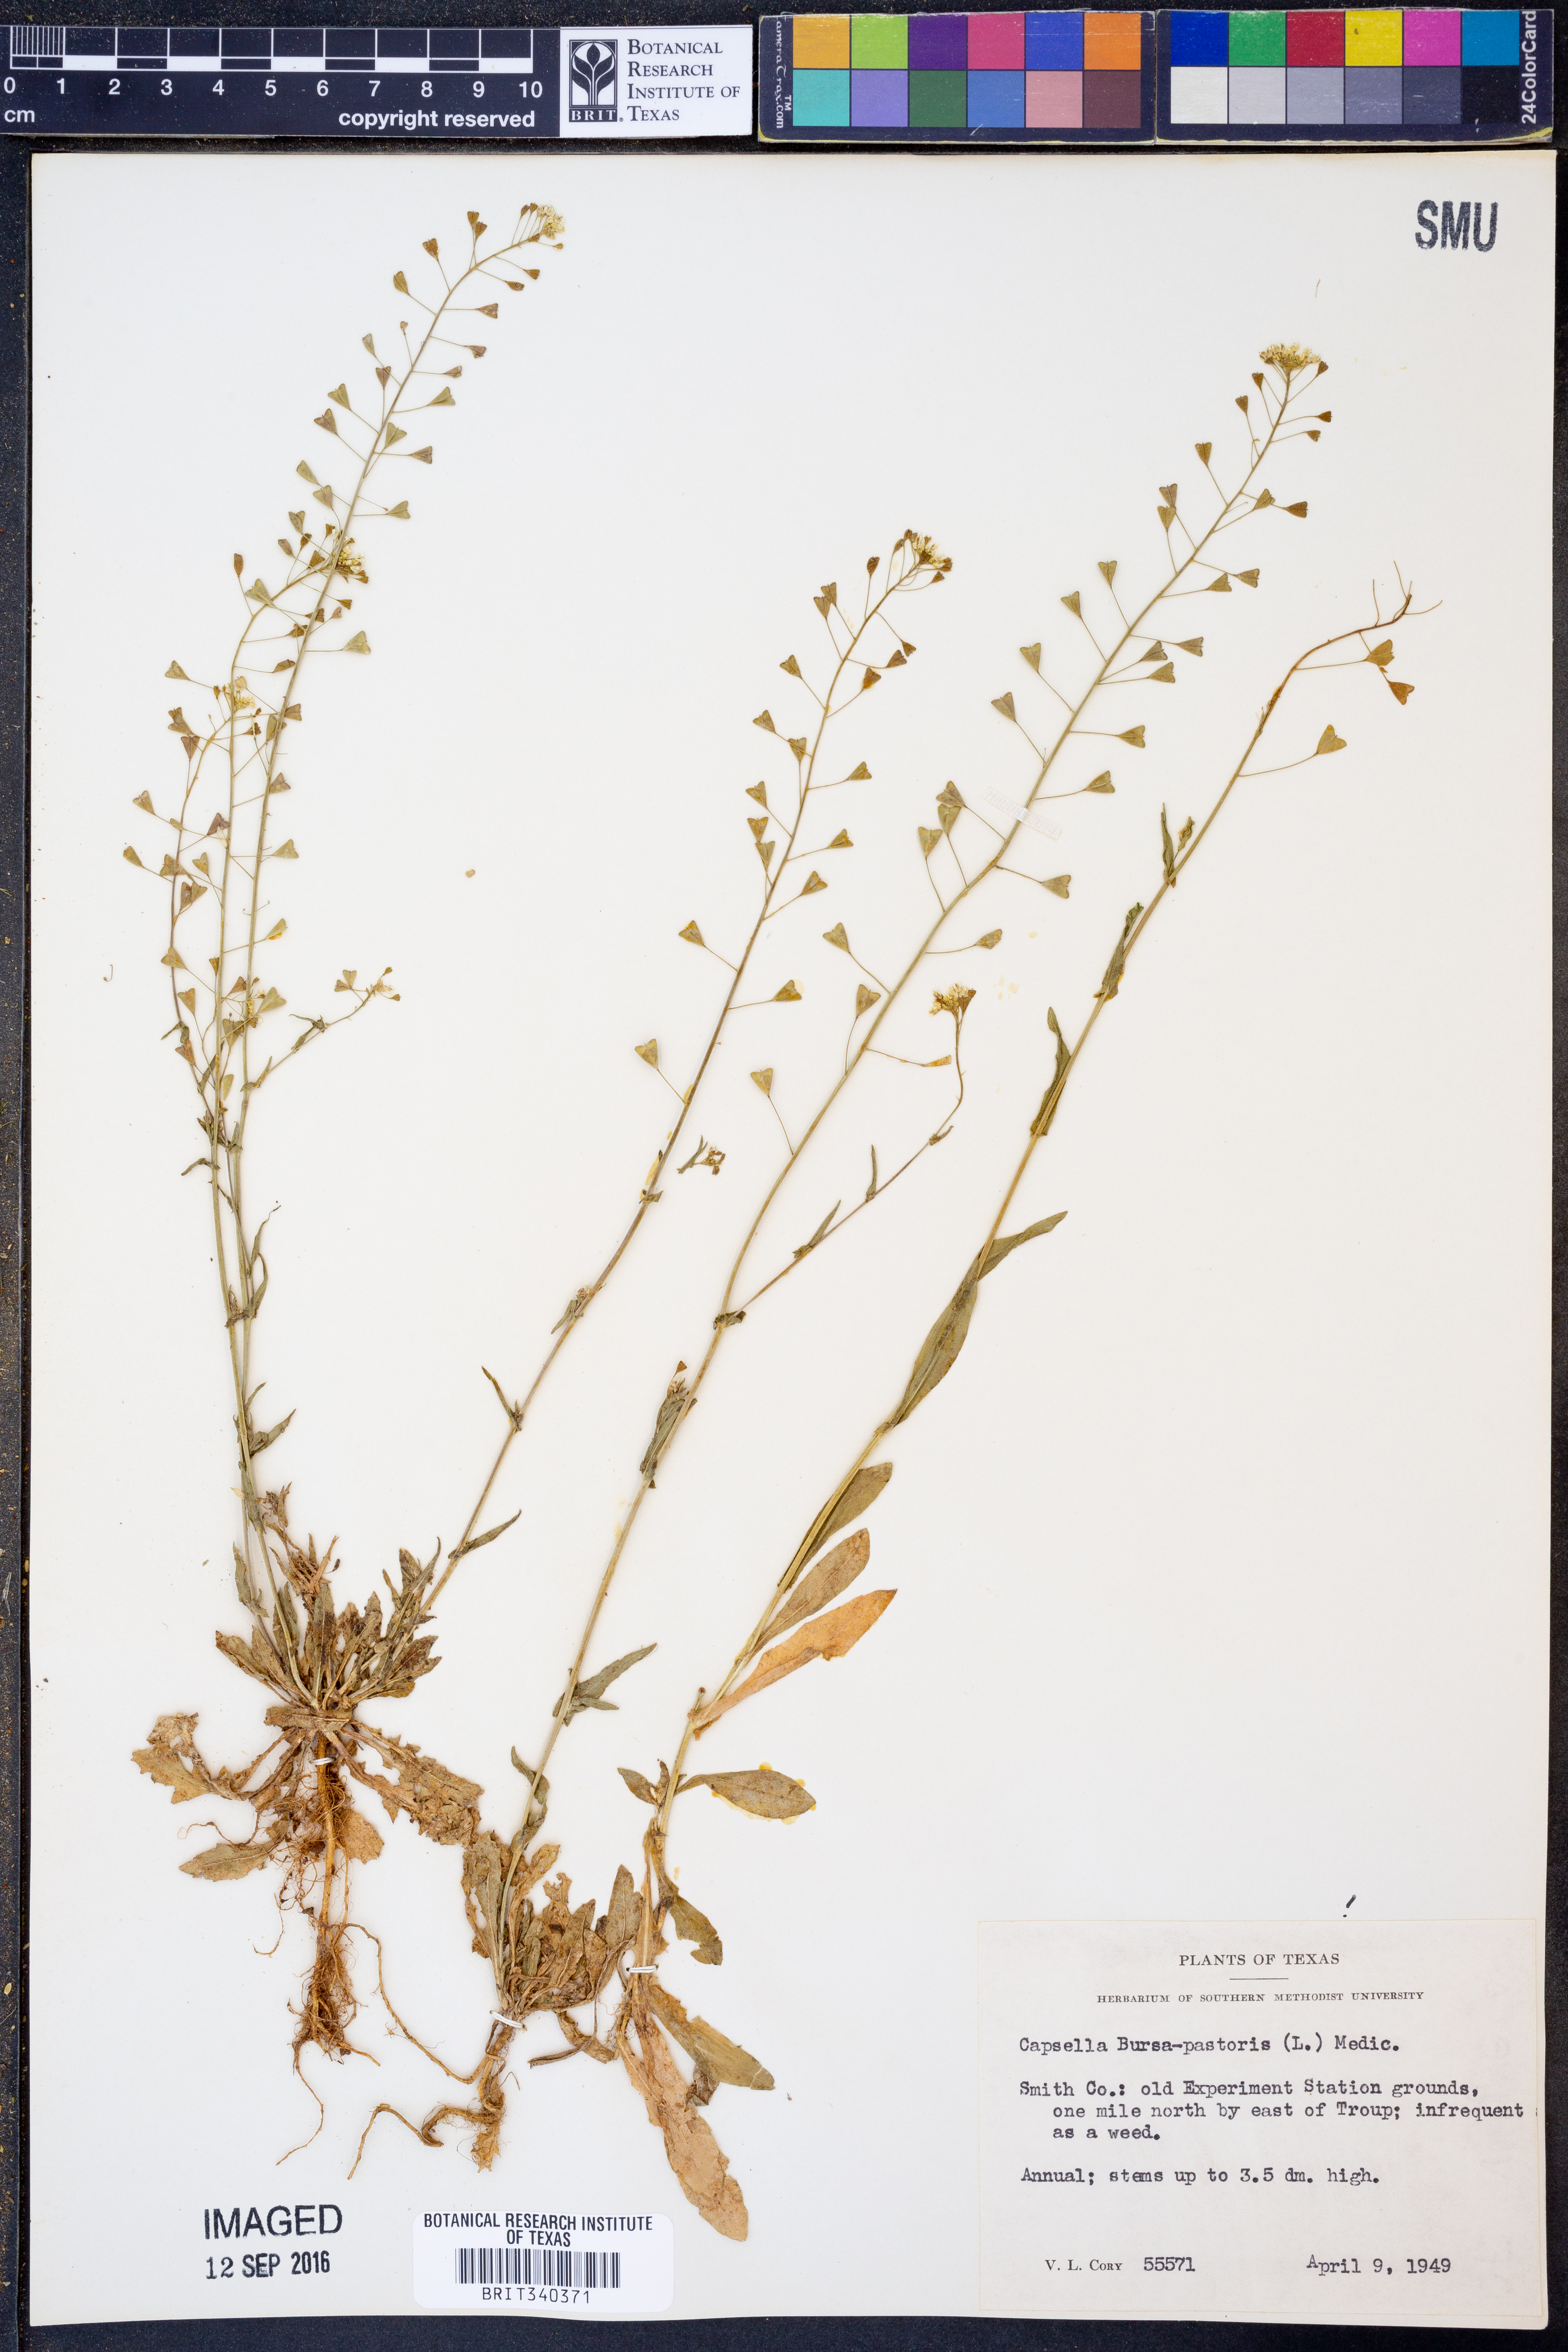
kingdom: Plantae
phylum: Tracheophyta
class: Magnoliopsida
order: Brassicales
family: Brassicaceae
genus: Capsella
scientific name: Capsella bursa-pastoris
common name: Shepherd's purse
